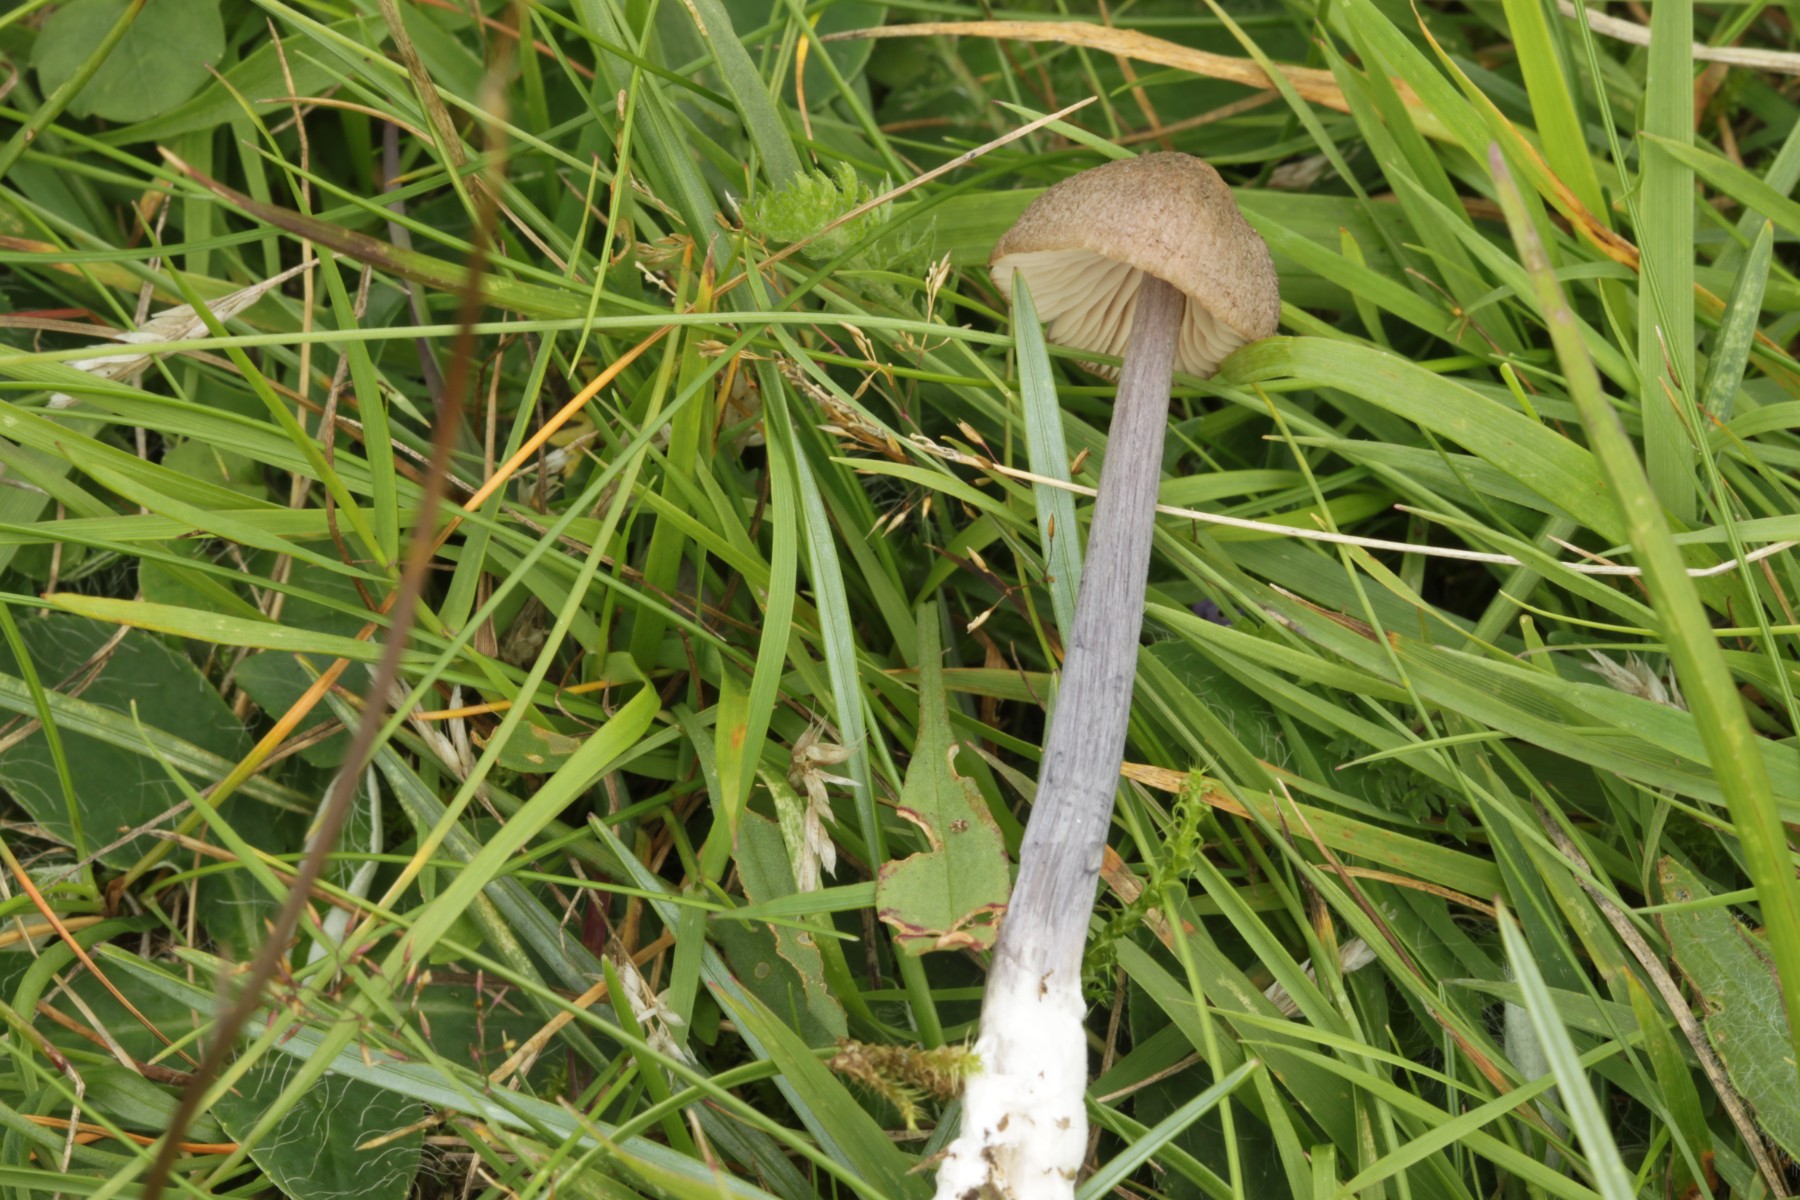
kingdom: Fungi
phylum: Basidiomycota
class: Agaricomycetes
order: Agaricales
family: Entolomataceae
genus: Entoloma
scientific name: Entoloma griseocyaneum
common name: gråblå rødblad
